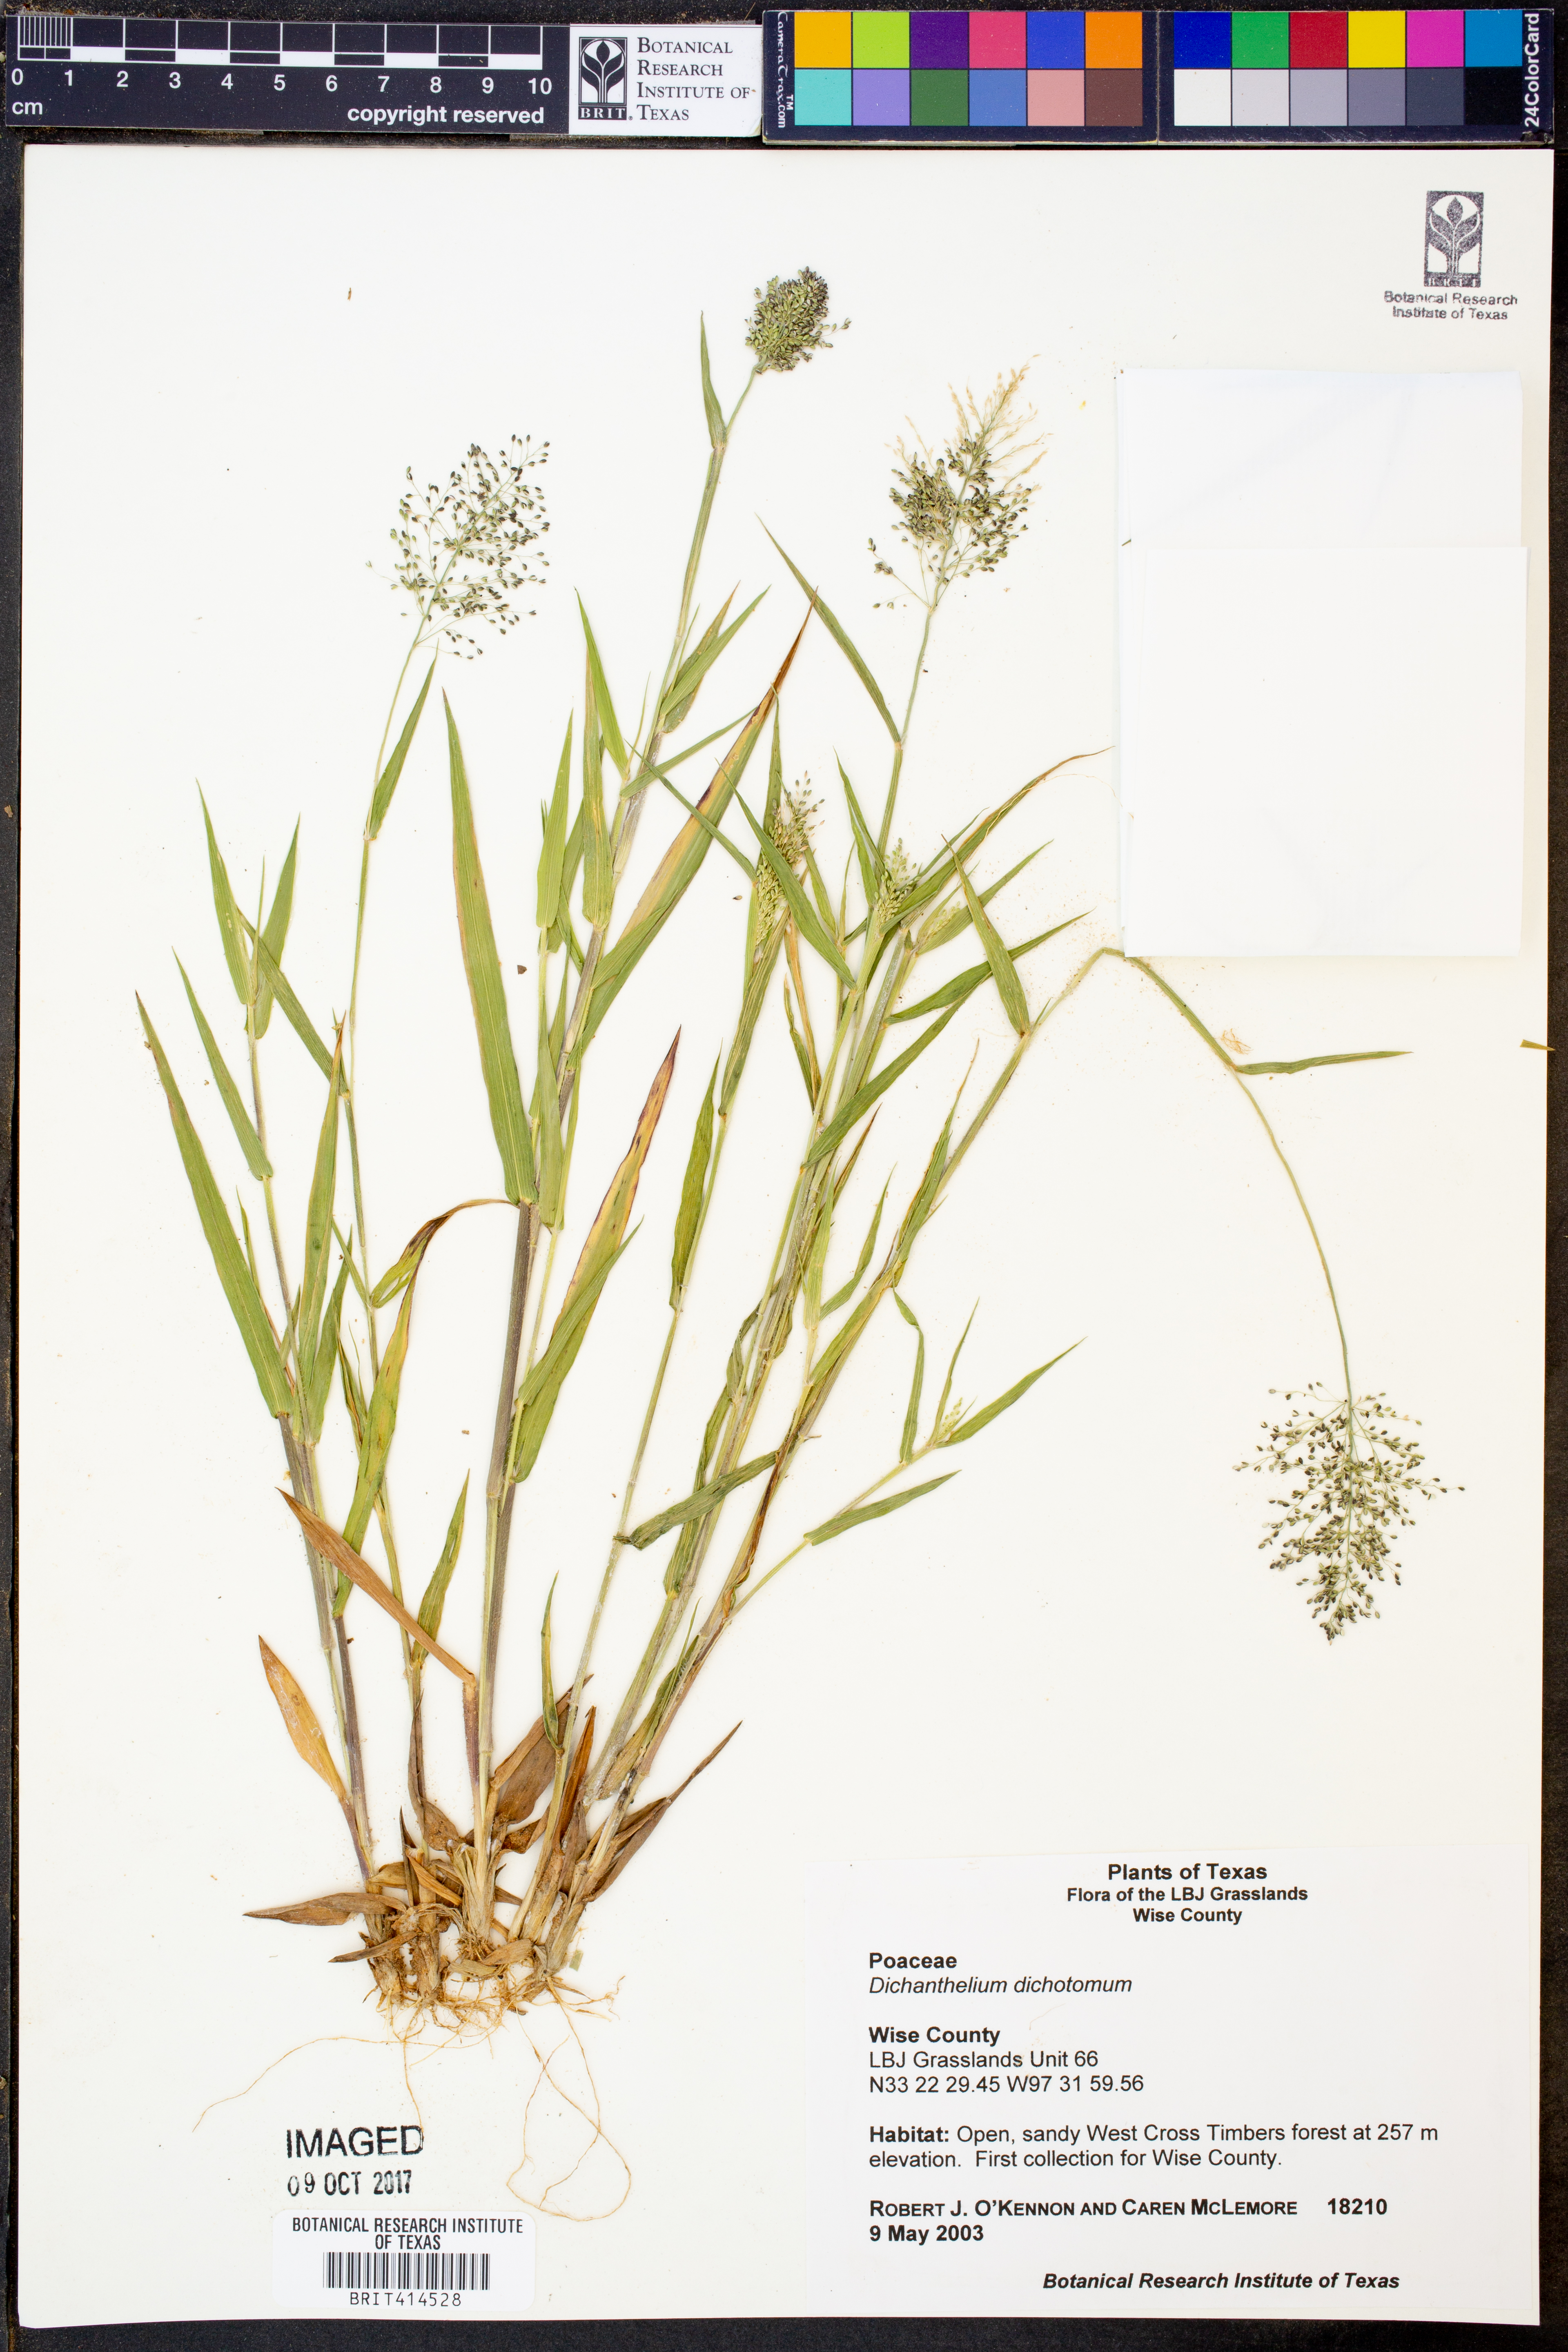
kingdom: Plantae
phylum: Tracheophyta
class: Liliopsida
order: Poales
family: Poaceae
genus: Dichanthelium
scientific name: Dichanthelium dichotomum
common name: Cypress panicgrass
